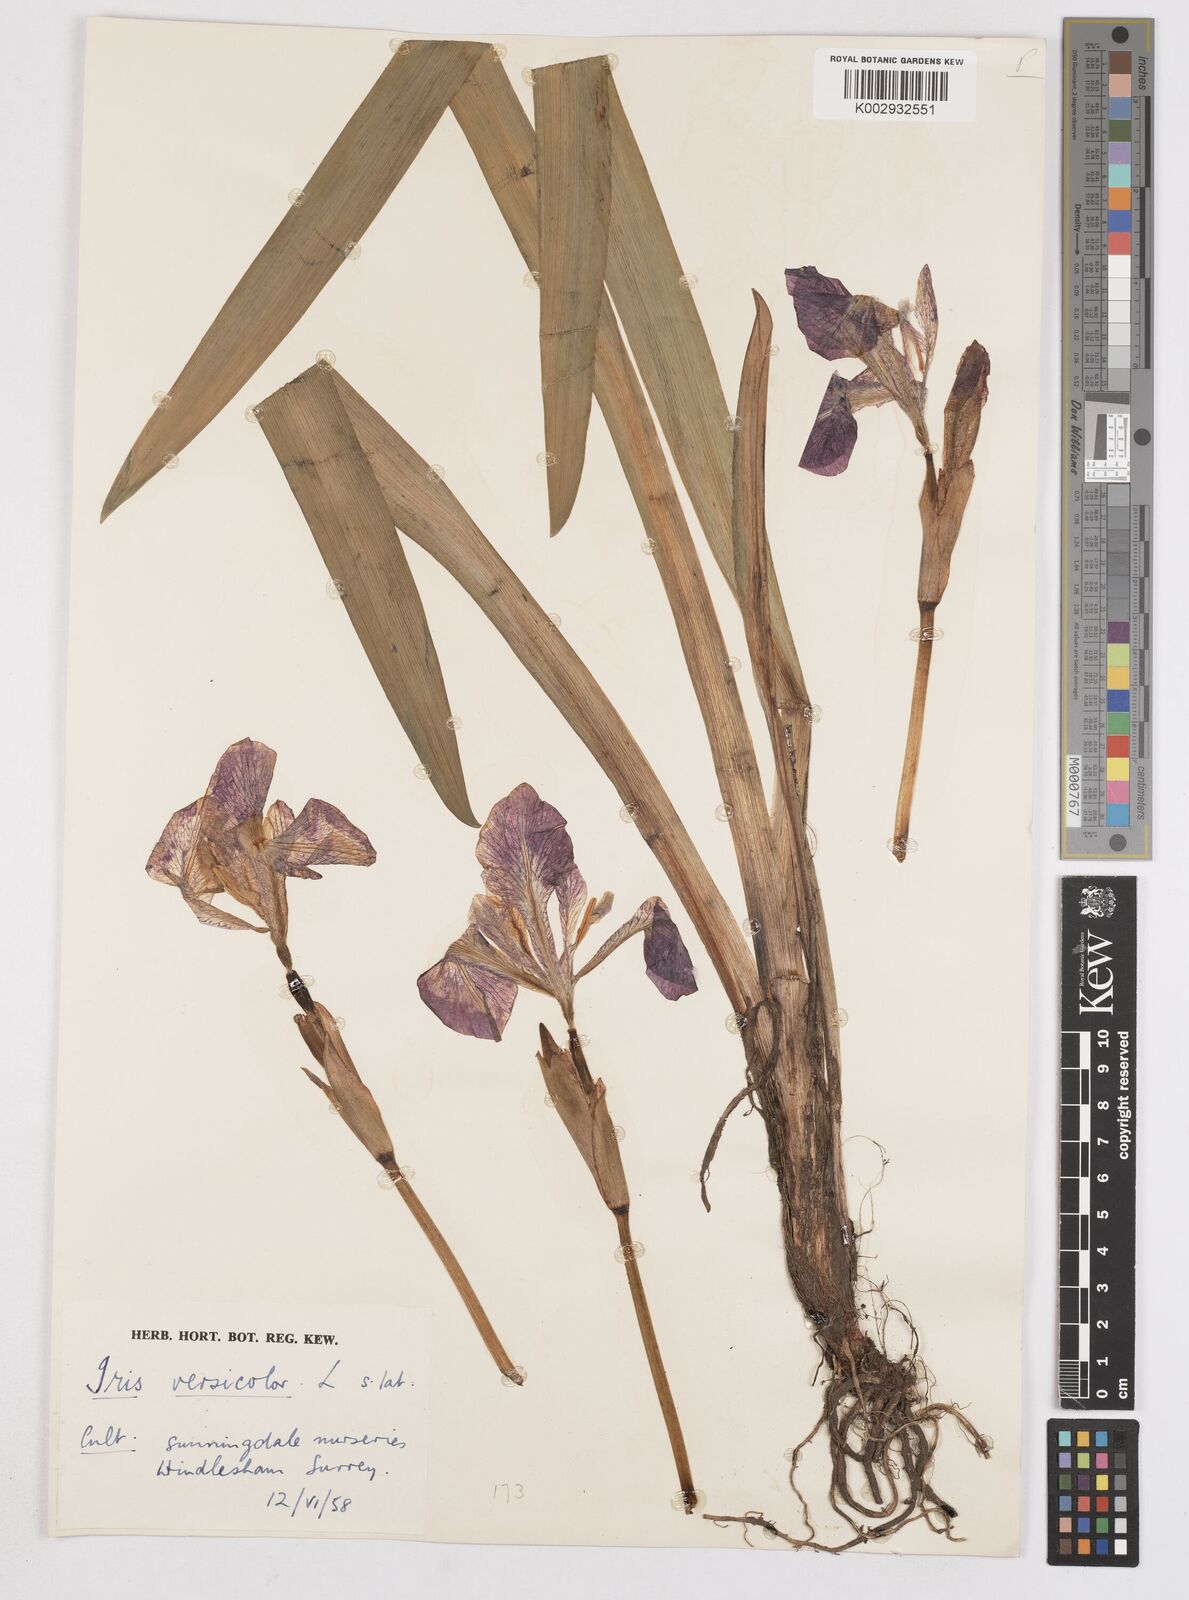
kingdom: Plantae
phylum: Tracheophyta
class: Liliopsida
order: Asparagales
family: Iridaceae
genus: Iris
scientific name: Iris versicolor
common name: Purple iris
